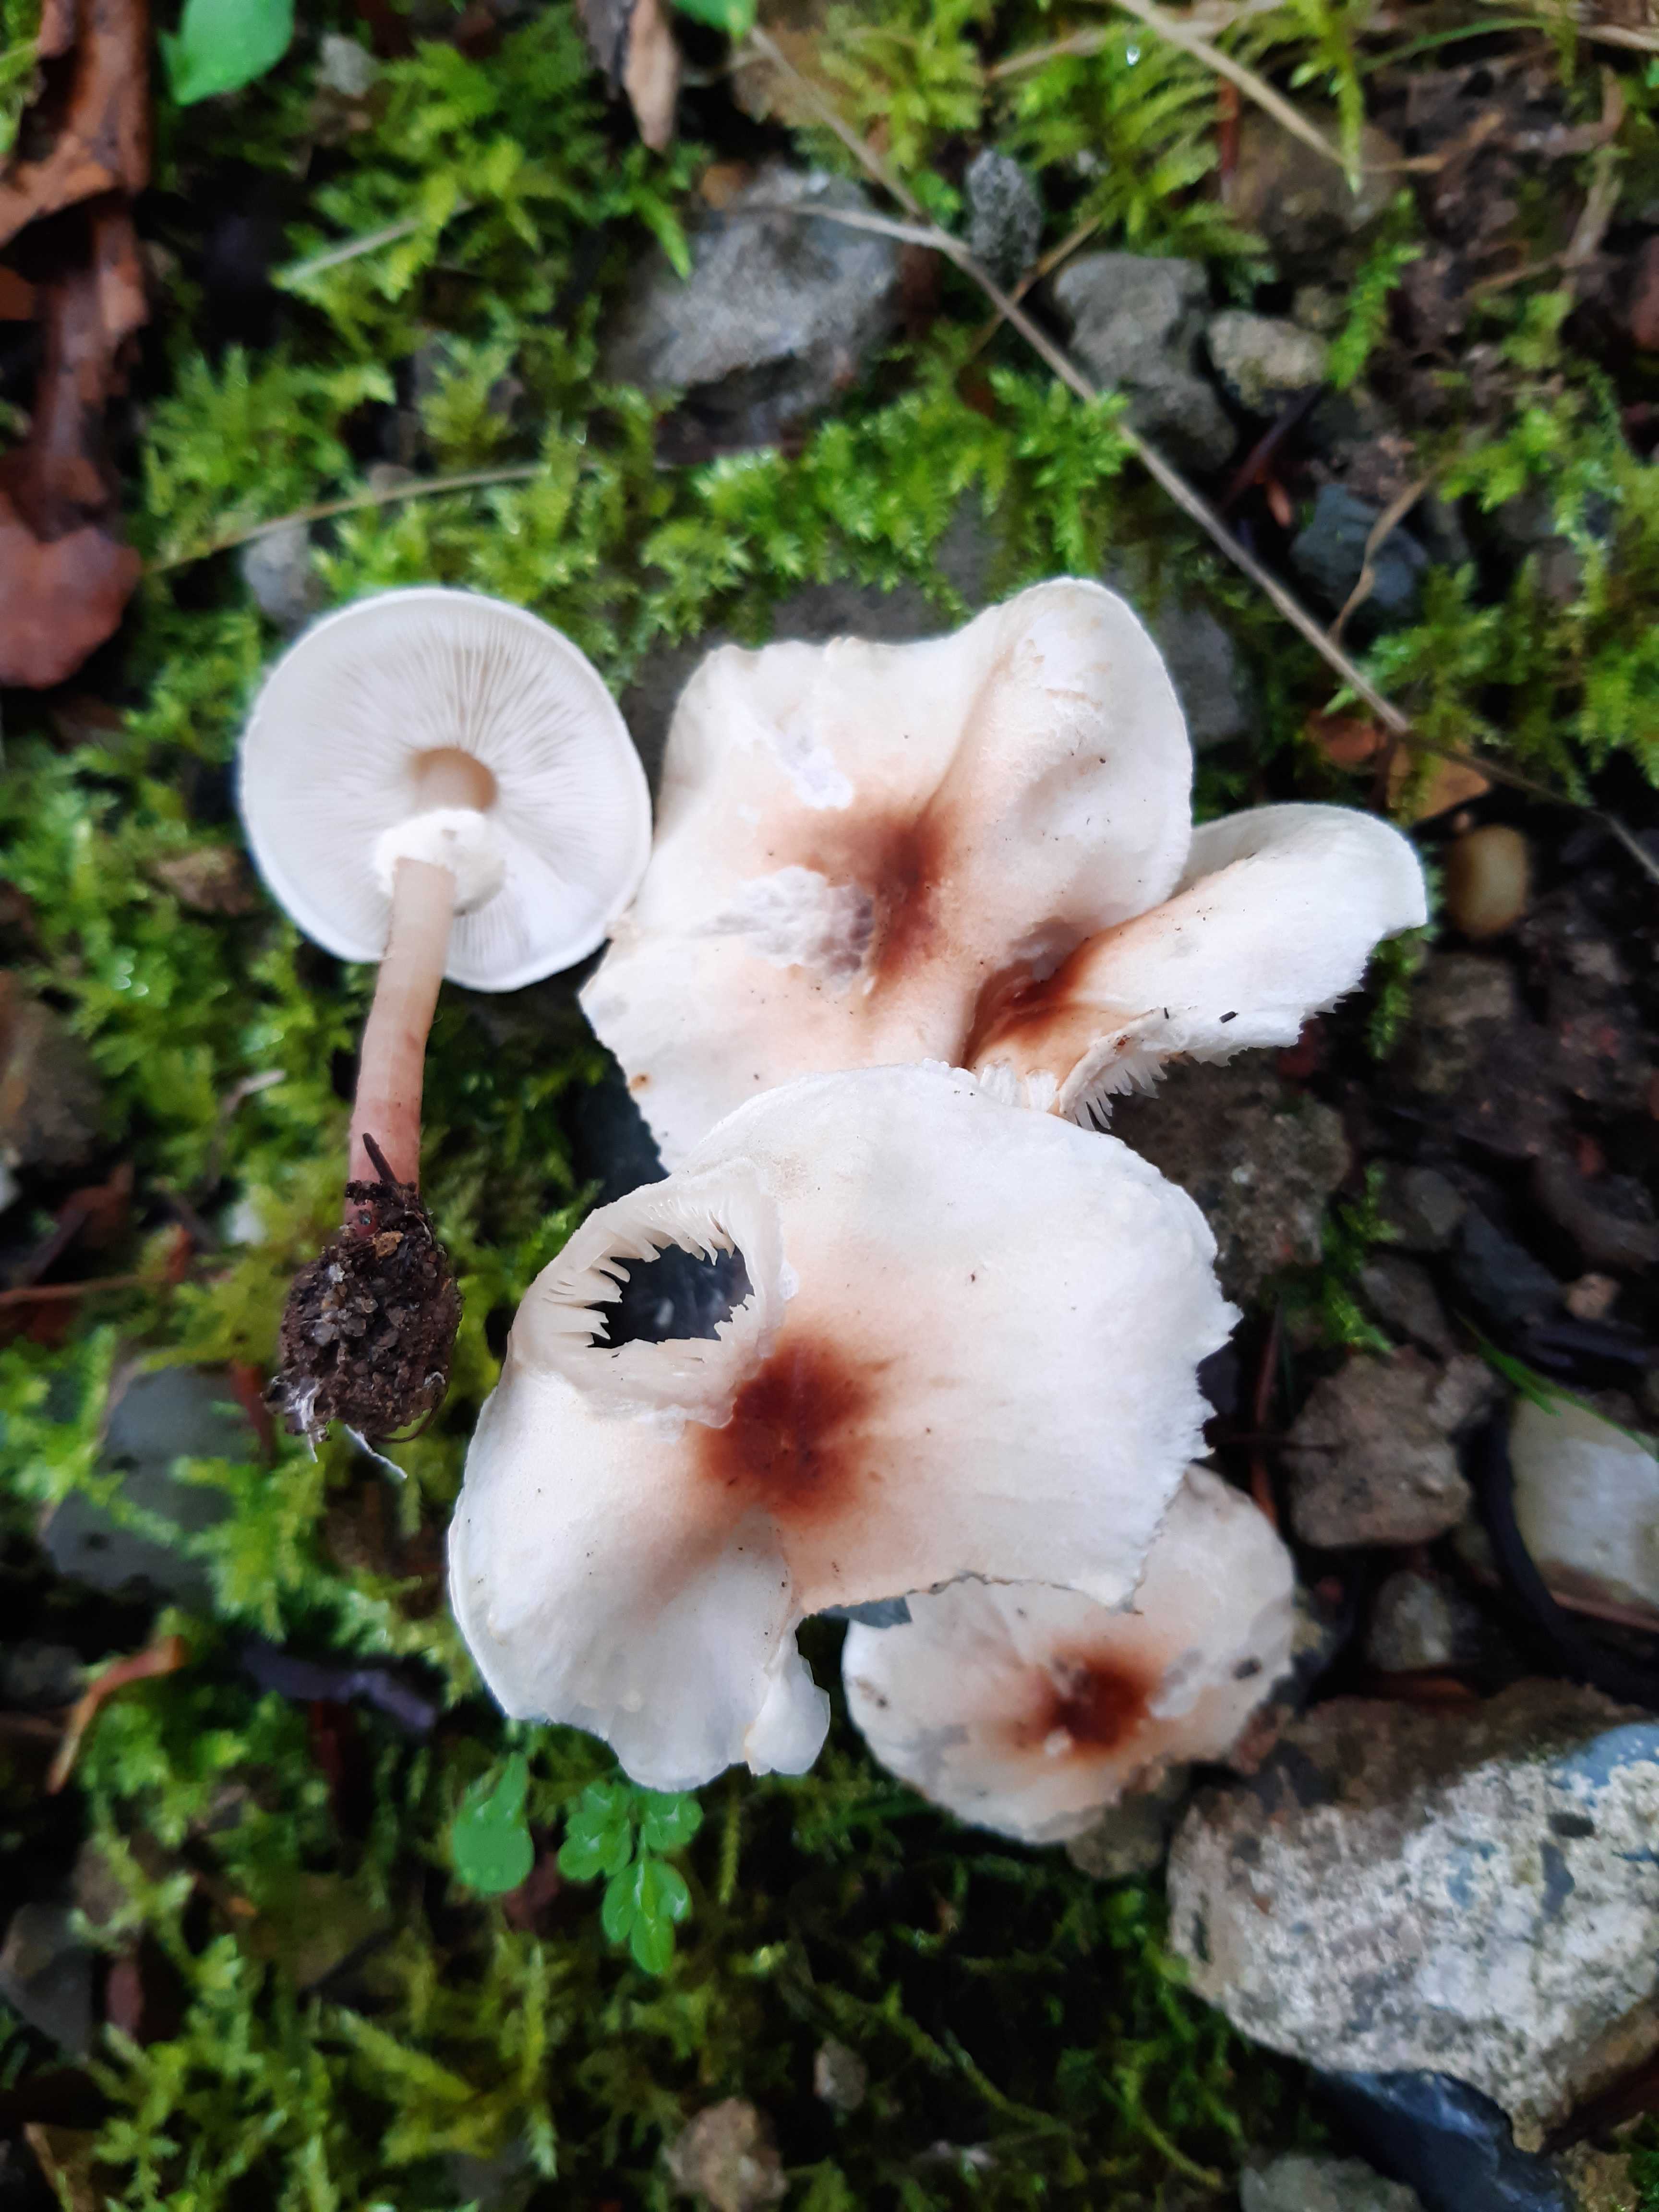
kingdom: Fungi
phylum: Basidiomycota
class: Agaricomycetes
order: Agaricales
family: Agaricaceae
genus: Lepiota
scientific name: Lepiota cristata
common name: stinkende parasolhat
